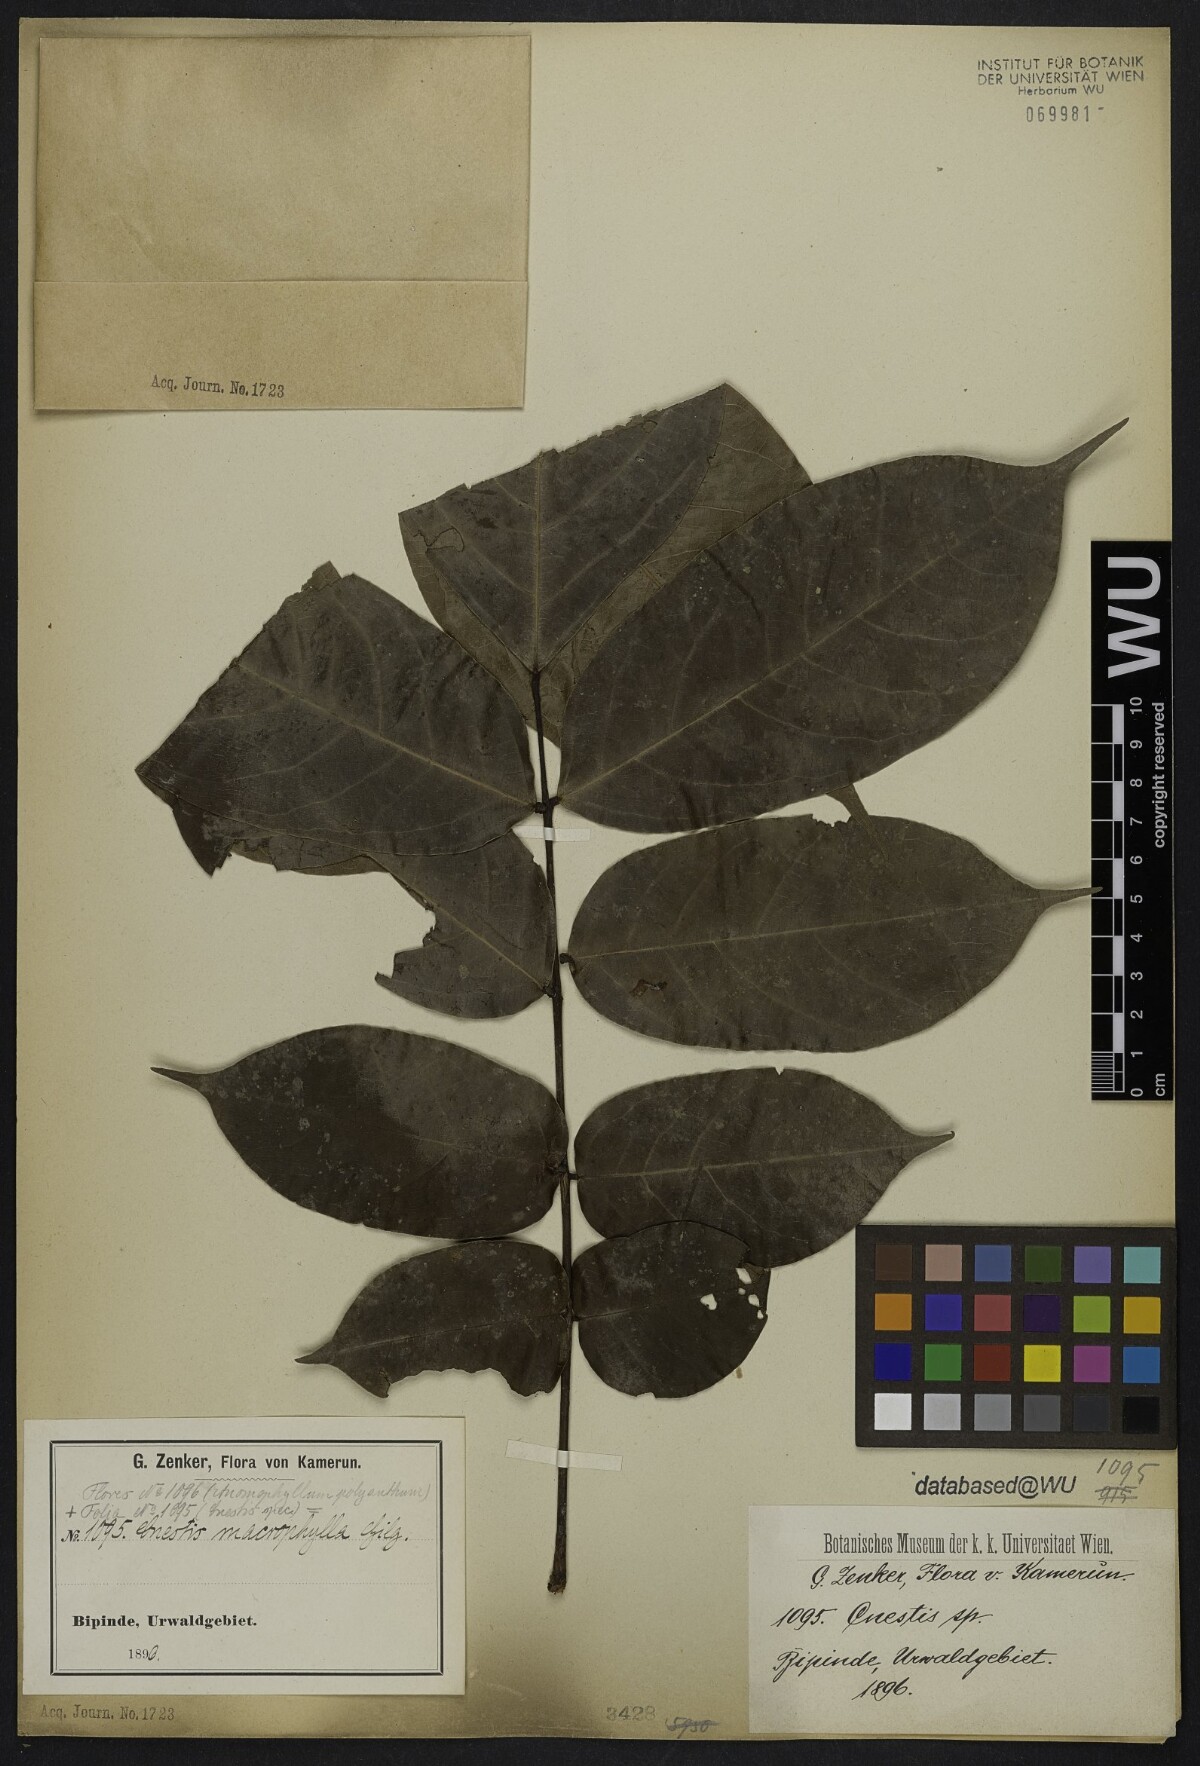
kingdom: Plantae
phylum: Tracheophyta
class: Magnoliopsida
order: Oxalidales
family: Connaraceae
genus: Cnestis
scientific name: Cnestis macrophylla
